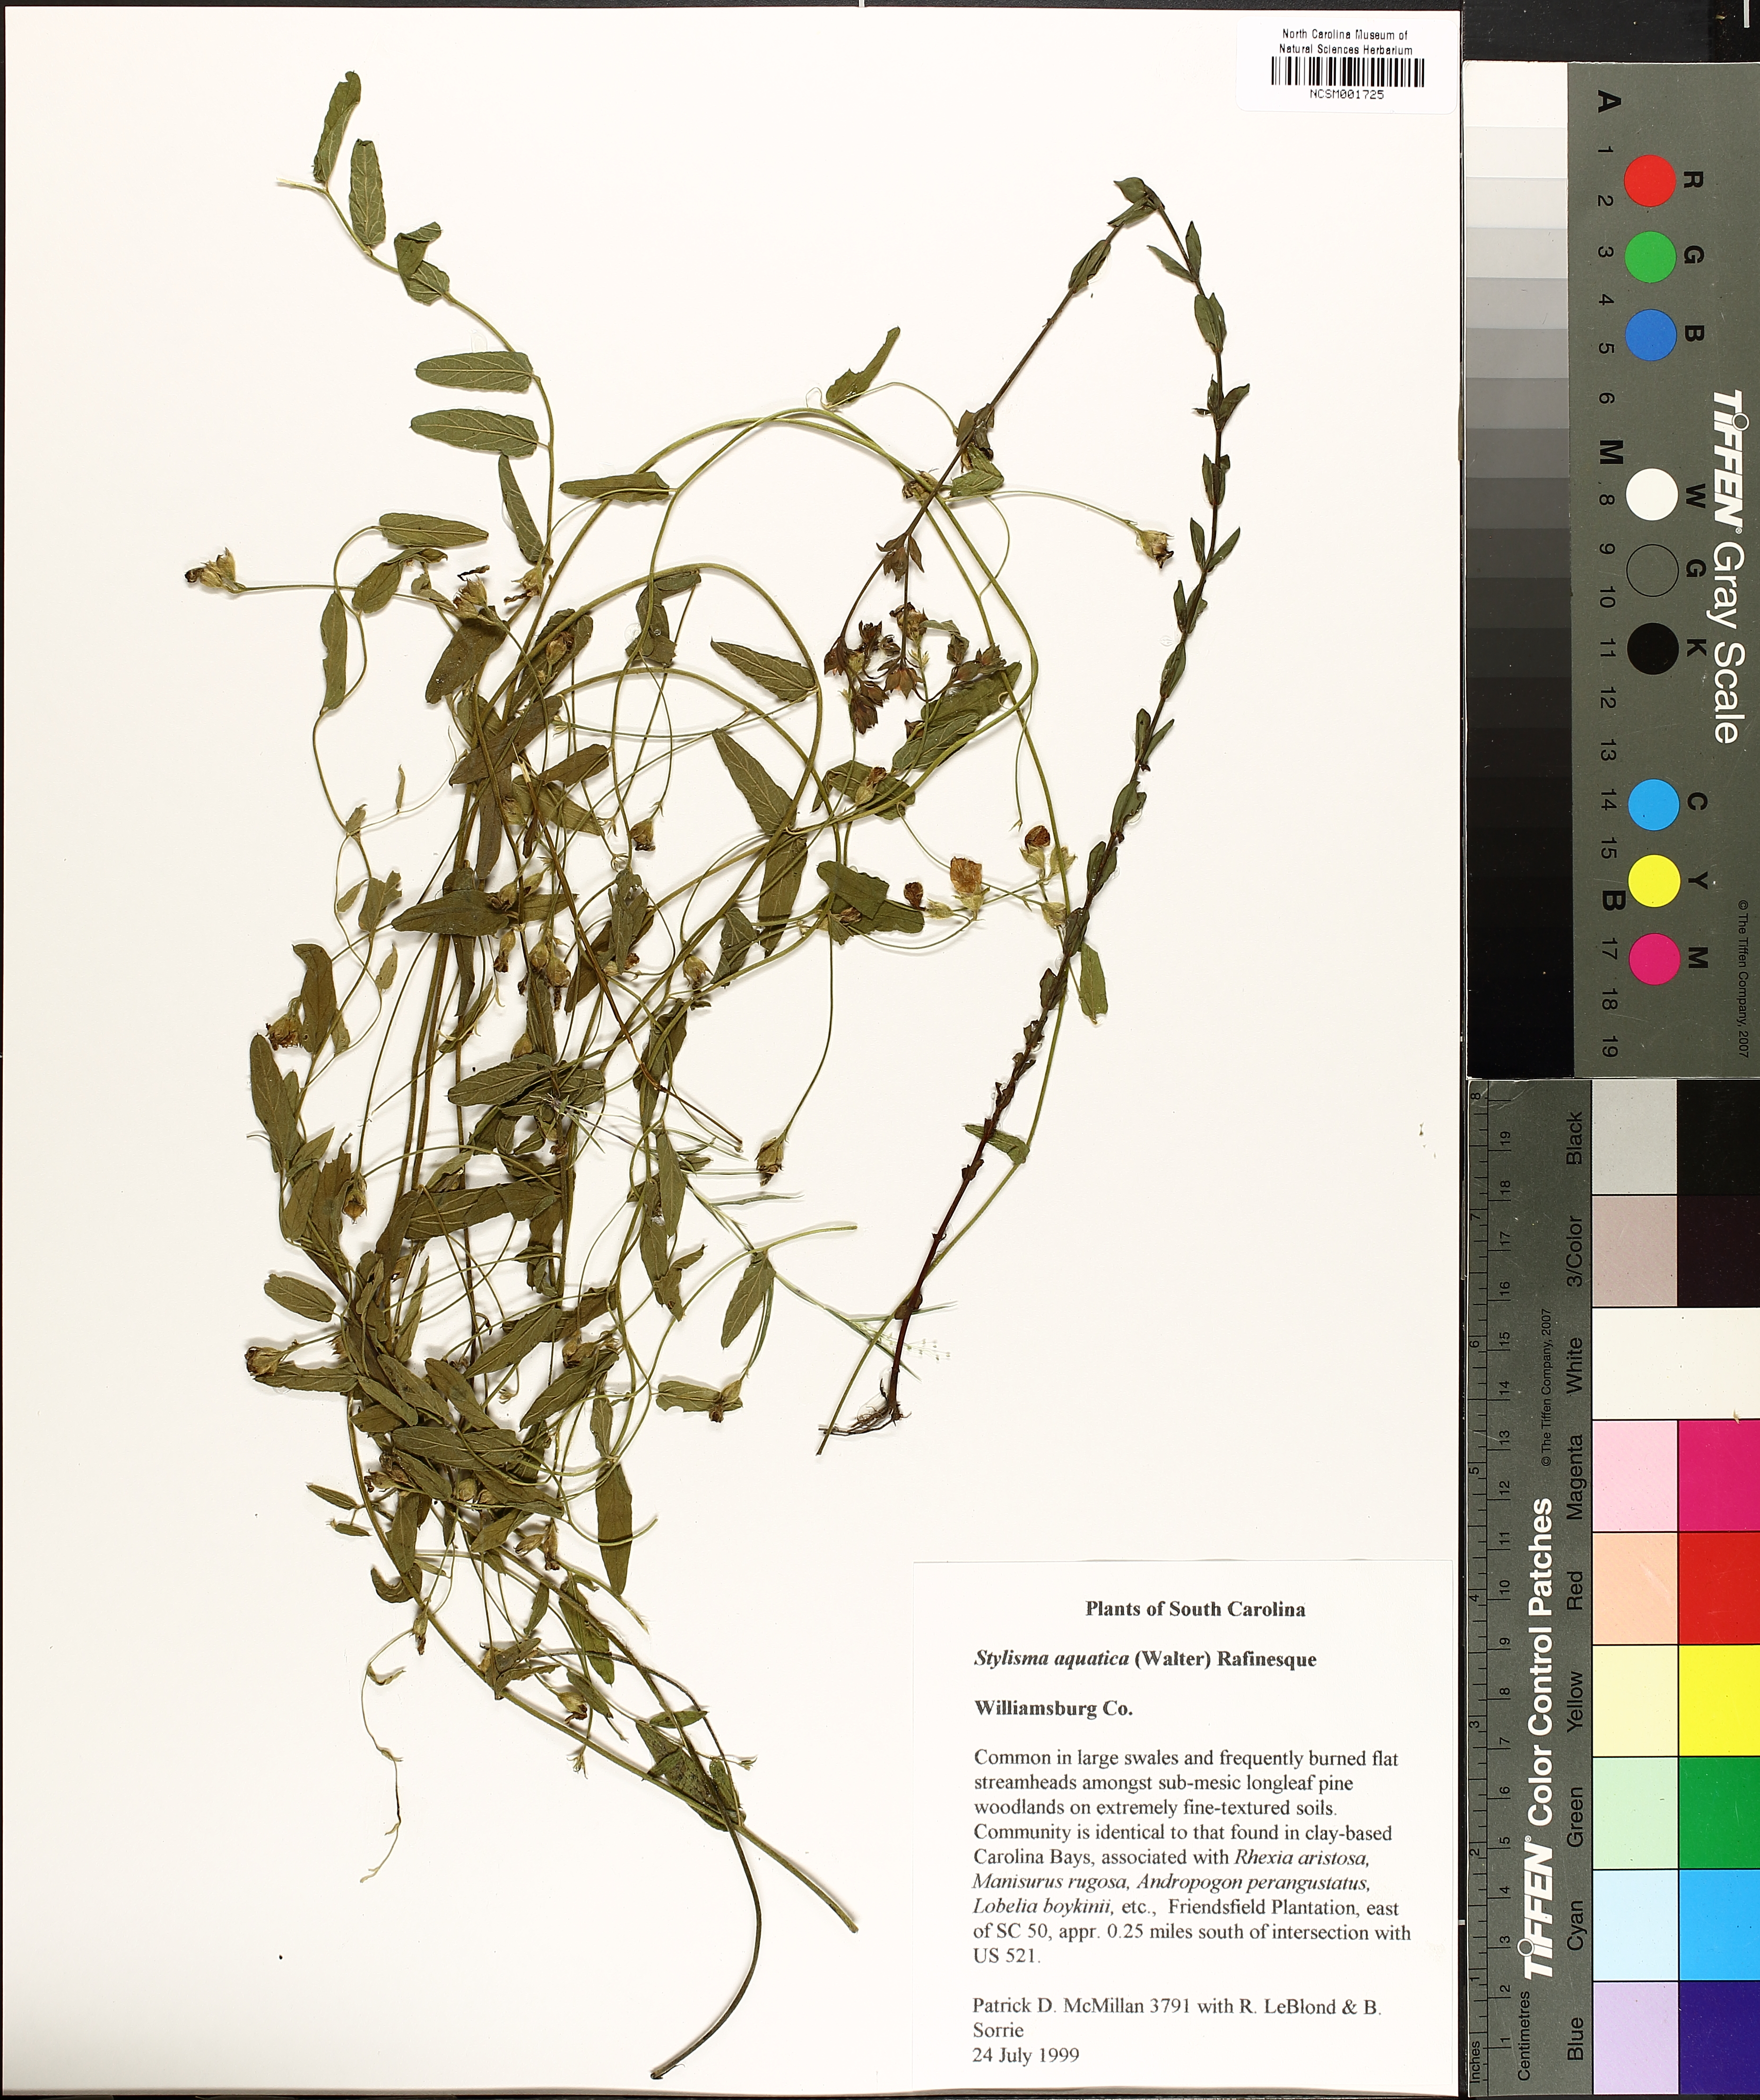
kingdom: Plantae
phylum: Tracheophyta
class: Magnoliopsida
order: Solanales
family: Convolvulaceae
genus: Stylisma
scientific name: Stylisma aquatica
